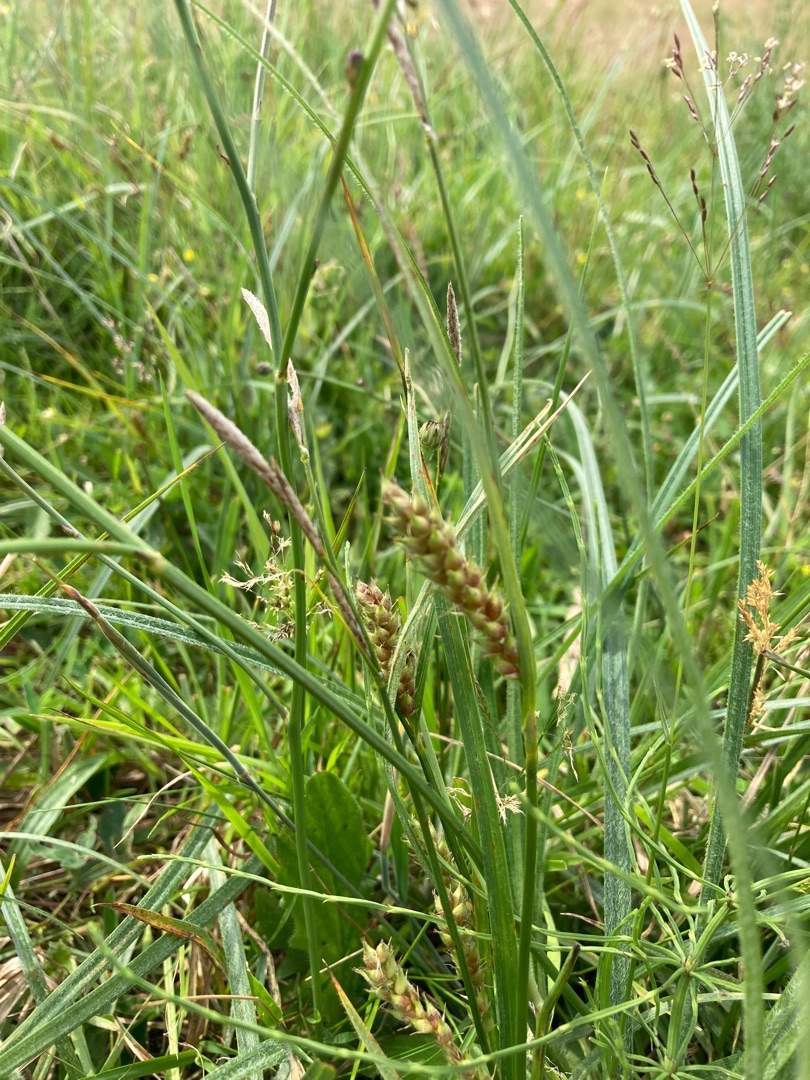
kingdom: Plantae
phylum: Tracheophyta
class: Liliopsida
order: Poales
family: Cyperaceae
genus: Carex
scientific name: Carex hirta
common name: Håret star
